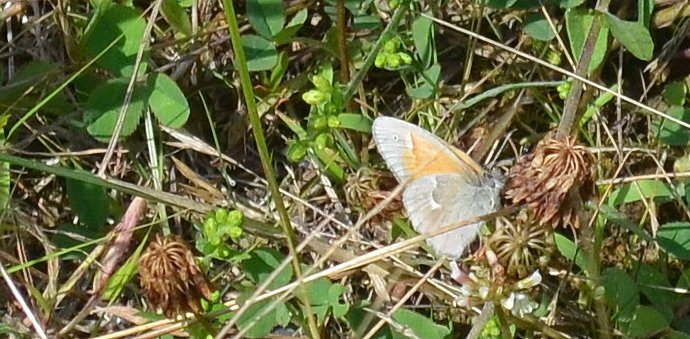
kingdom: Animalia
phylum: Arthropoda
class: Insecta
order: Lepidoptera
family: Nymphalidae
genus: Coenonympha
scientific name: Coenonympha tullia
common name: Large Heath
